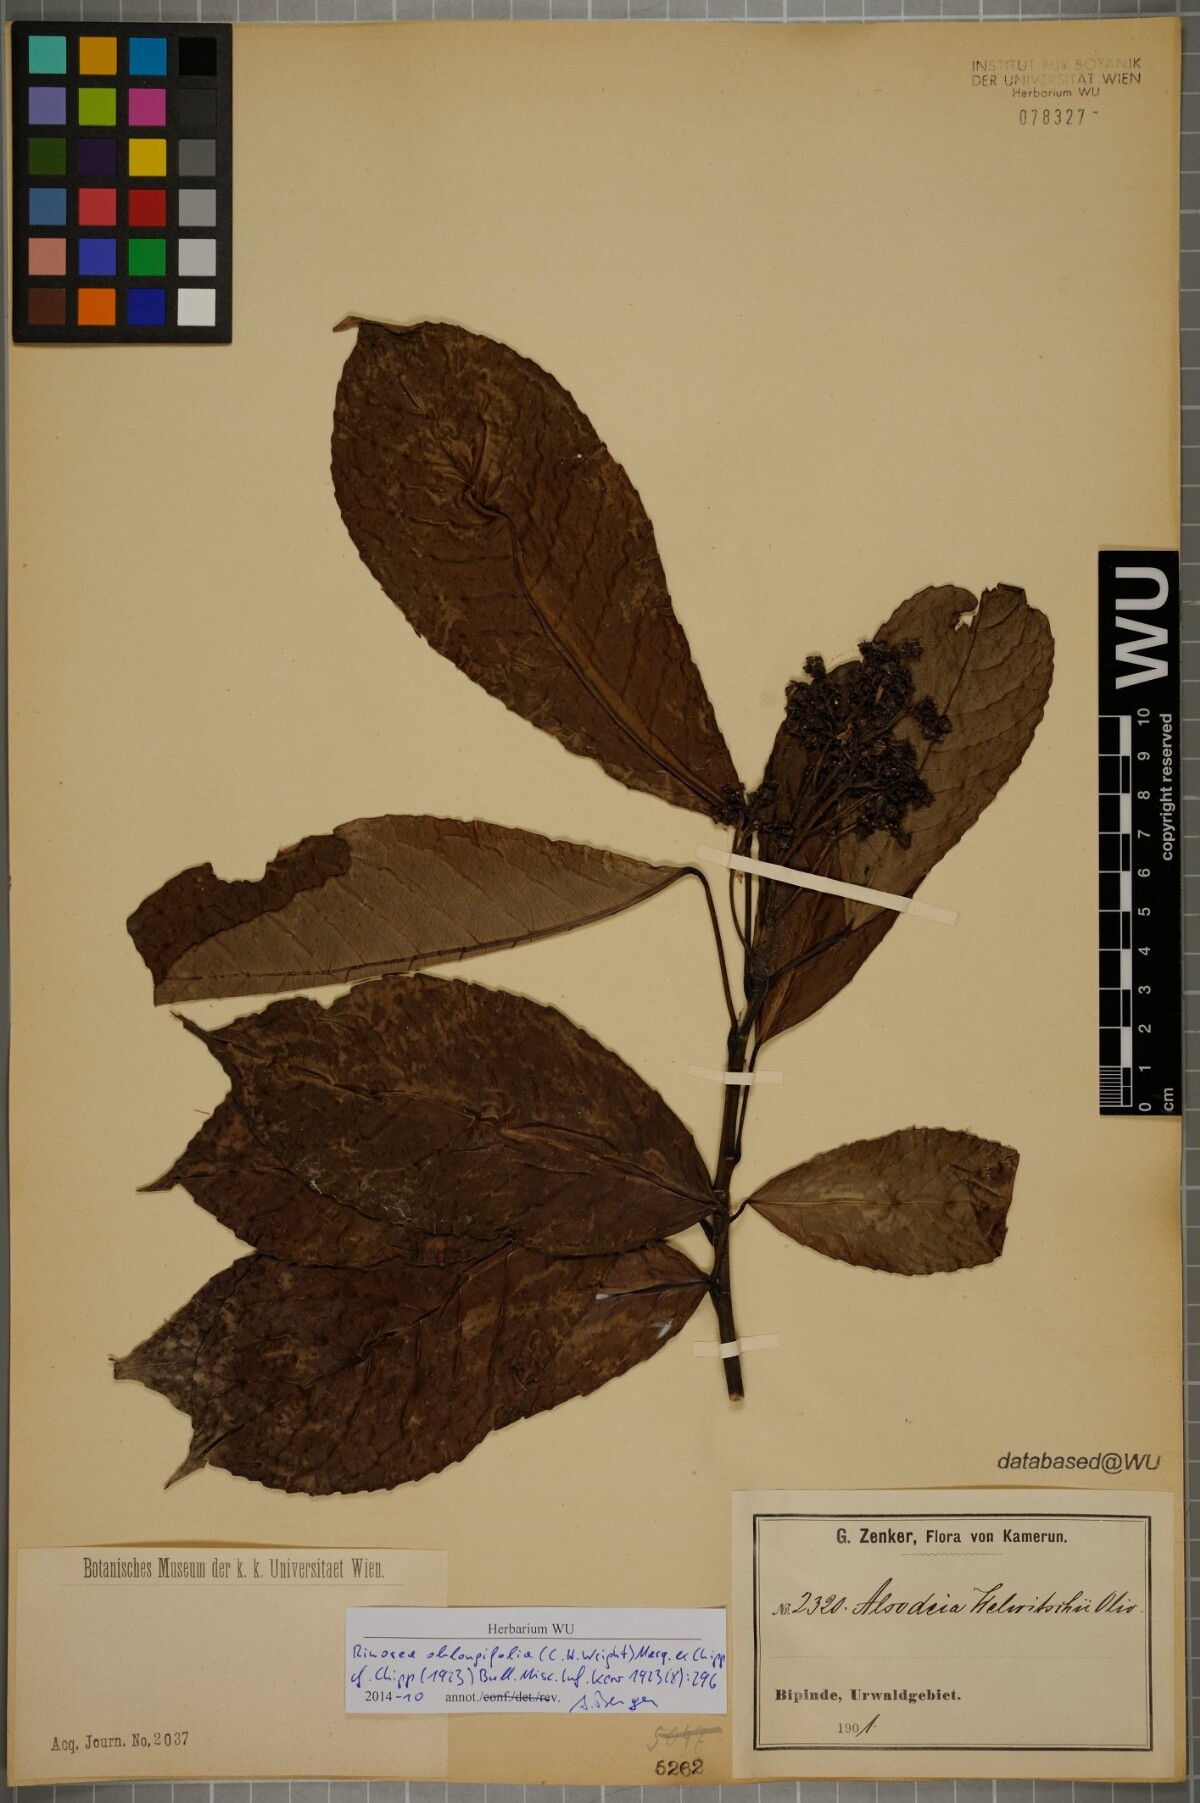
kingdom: Plantae
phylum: Tracheophyta
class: Magnoliopsida
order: Apiales
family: Pittosporaceae
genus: Marianthus
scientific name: Marianthus coeruleopunctatus
